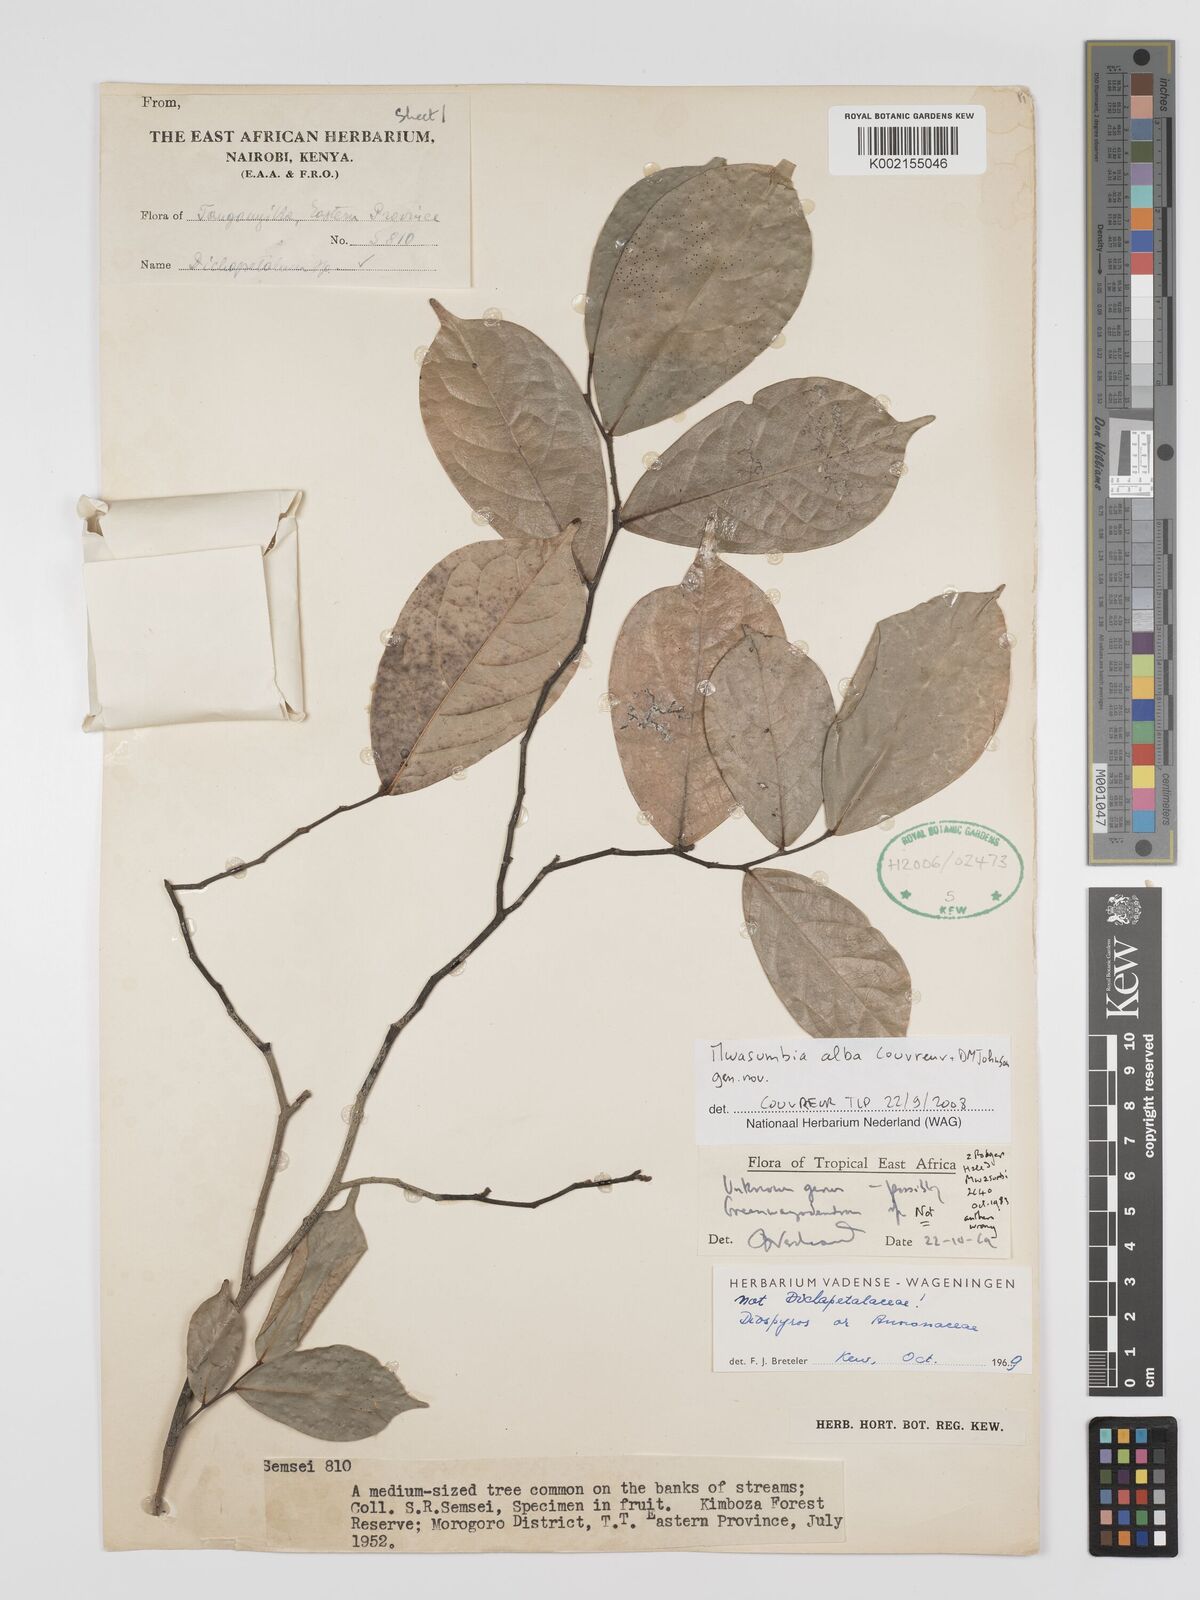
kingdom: Plantae
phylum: Tracheophyta
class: Magnoliopsida
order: Magnoliales
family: Annonaceae
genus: Mwasumbia
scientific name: Mwasumbia alba
